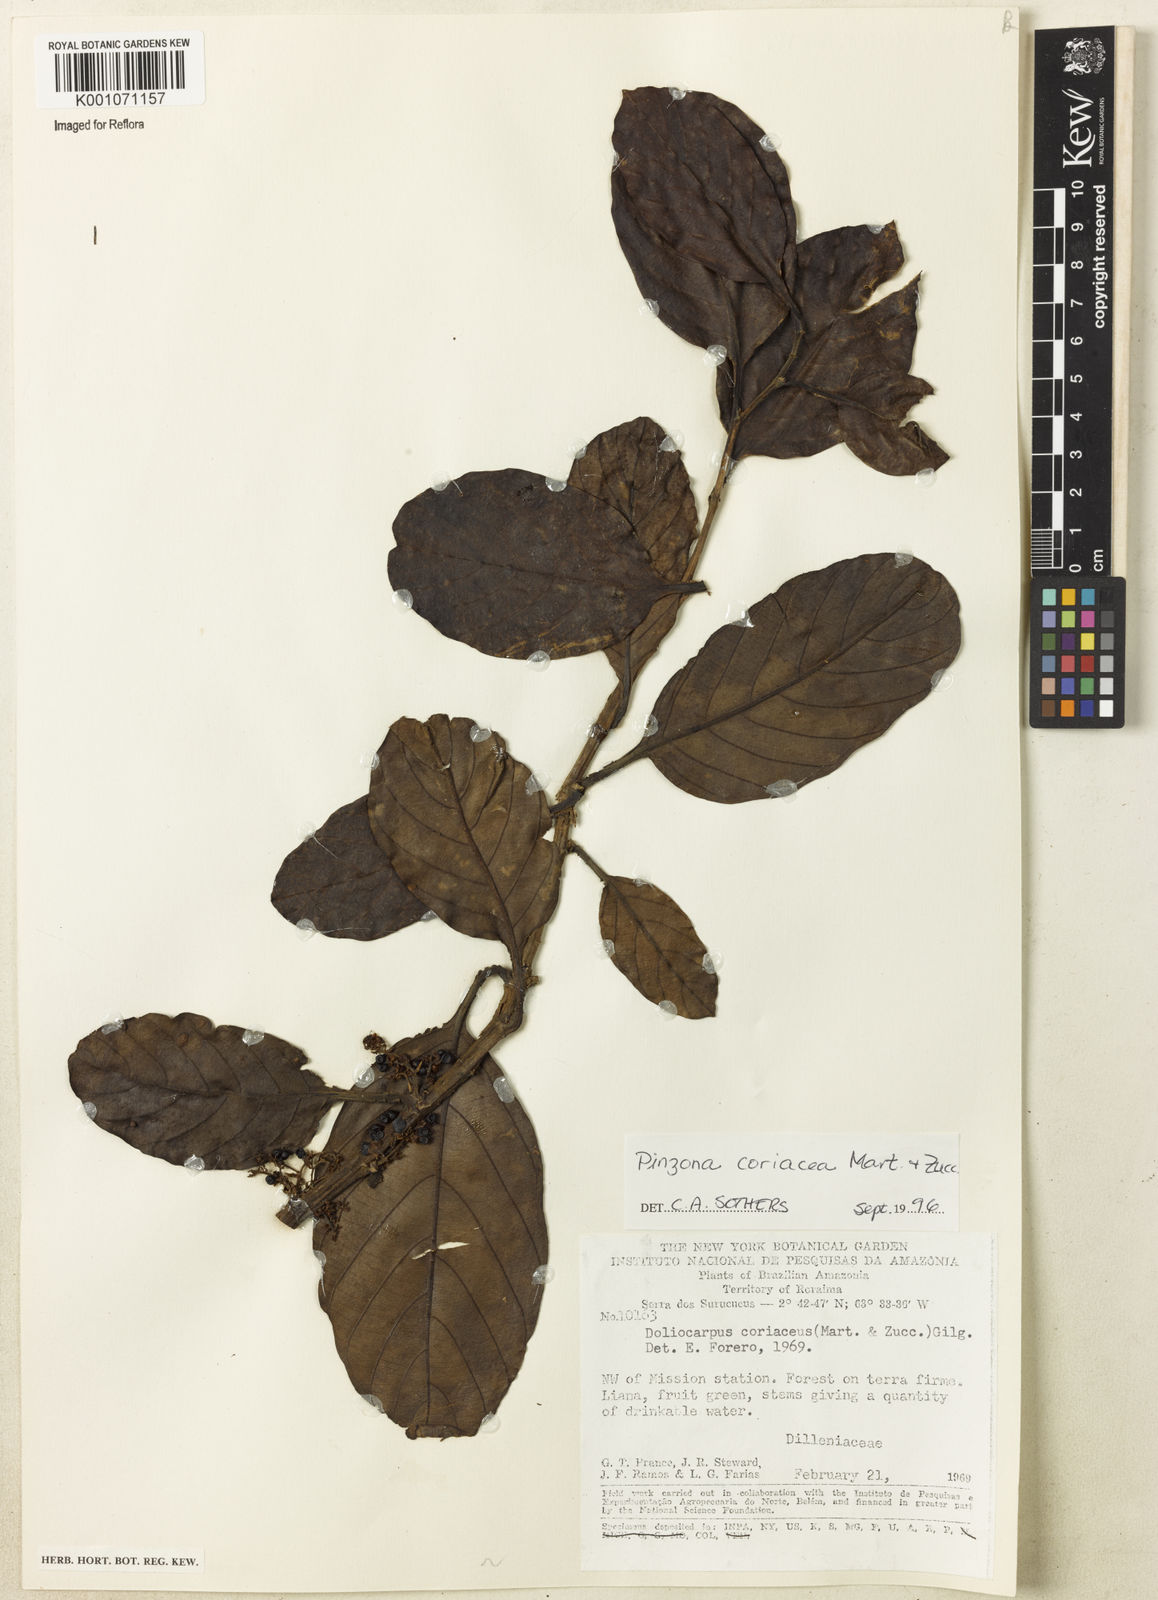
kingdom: Plantae
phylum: Tracheophyta
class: Magnoliopsida
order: Dilleniales
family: Dilleniaceae
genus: Pinzona
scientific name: Pinzona coriacea
